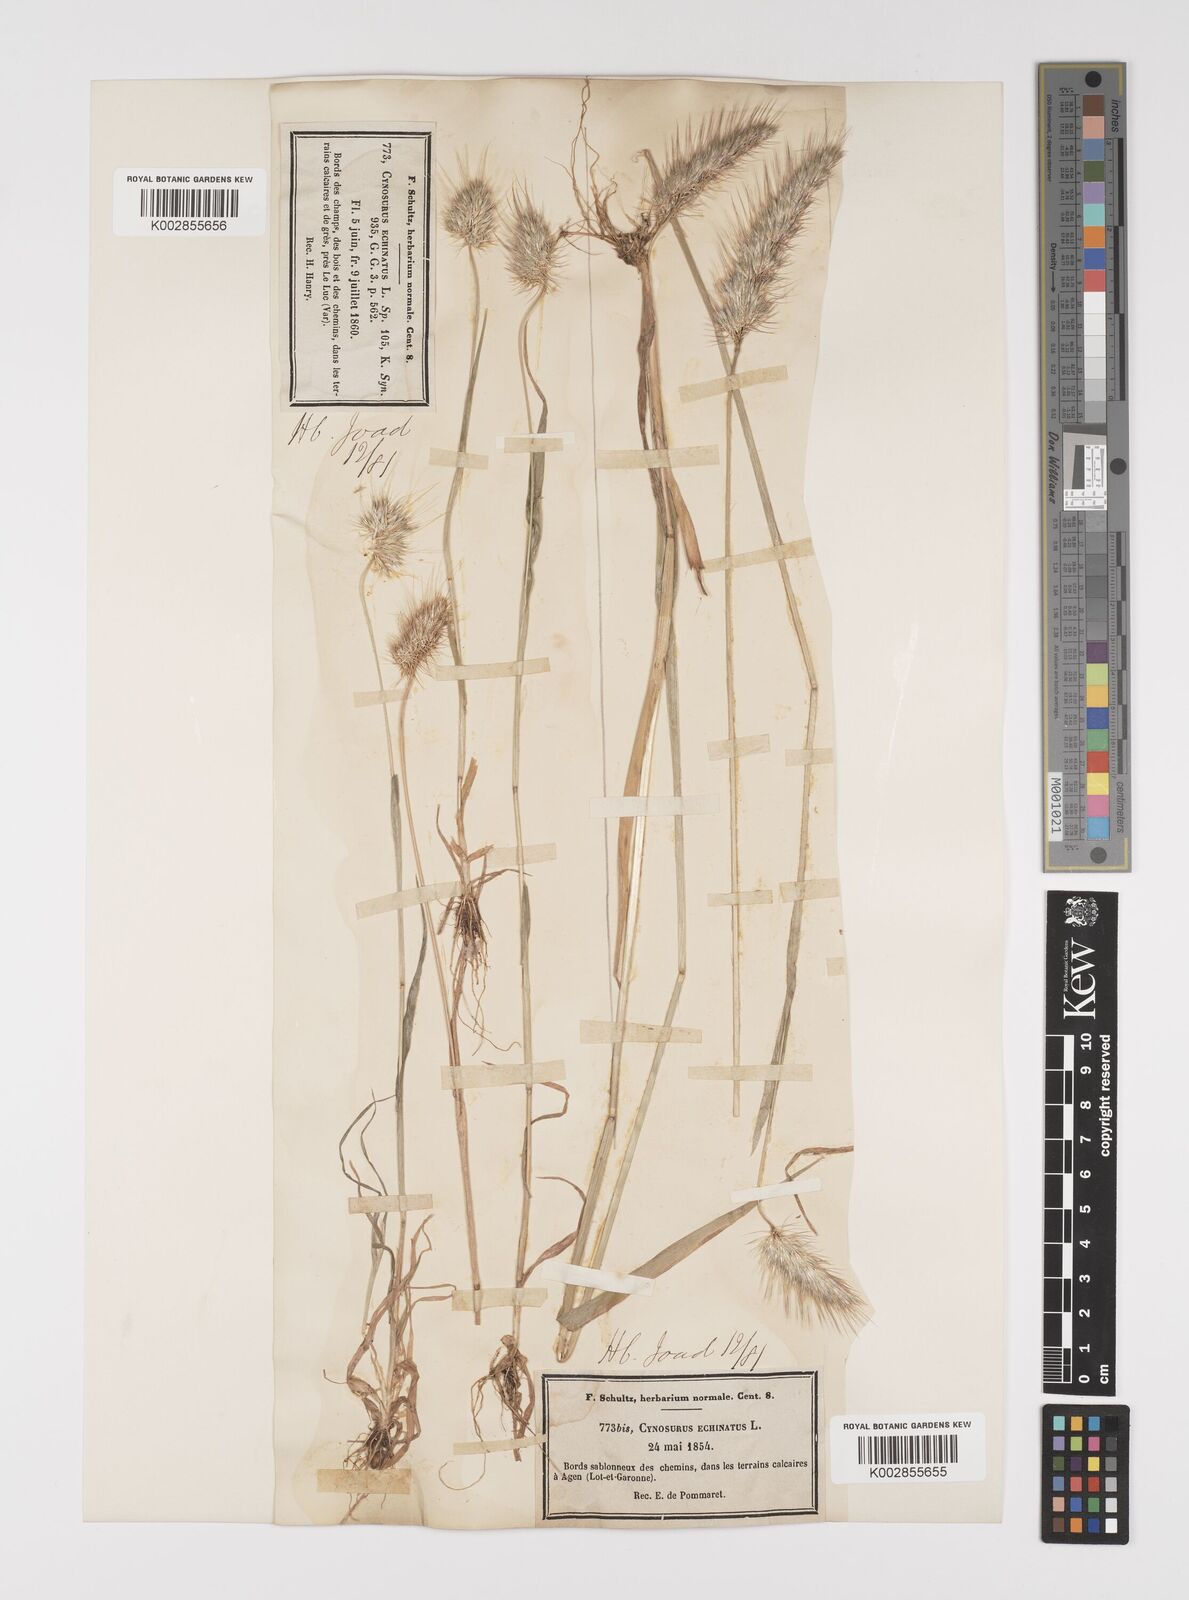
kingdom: Plantae
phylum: Tracheophyta
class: Liliopsida
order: Poales
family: Poaceae
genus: Cynosurus
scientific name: Cynosurus echinatus
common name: Rough dog's-tail
